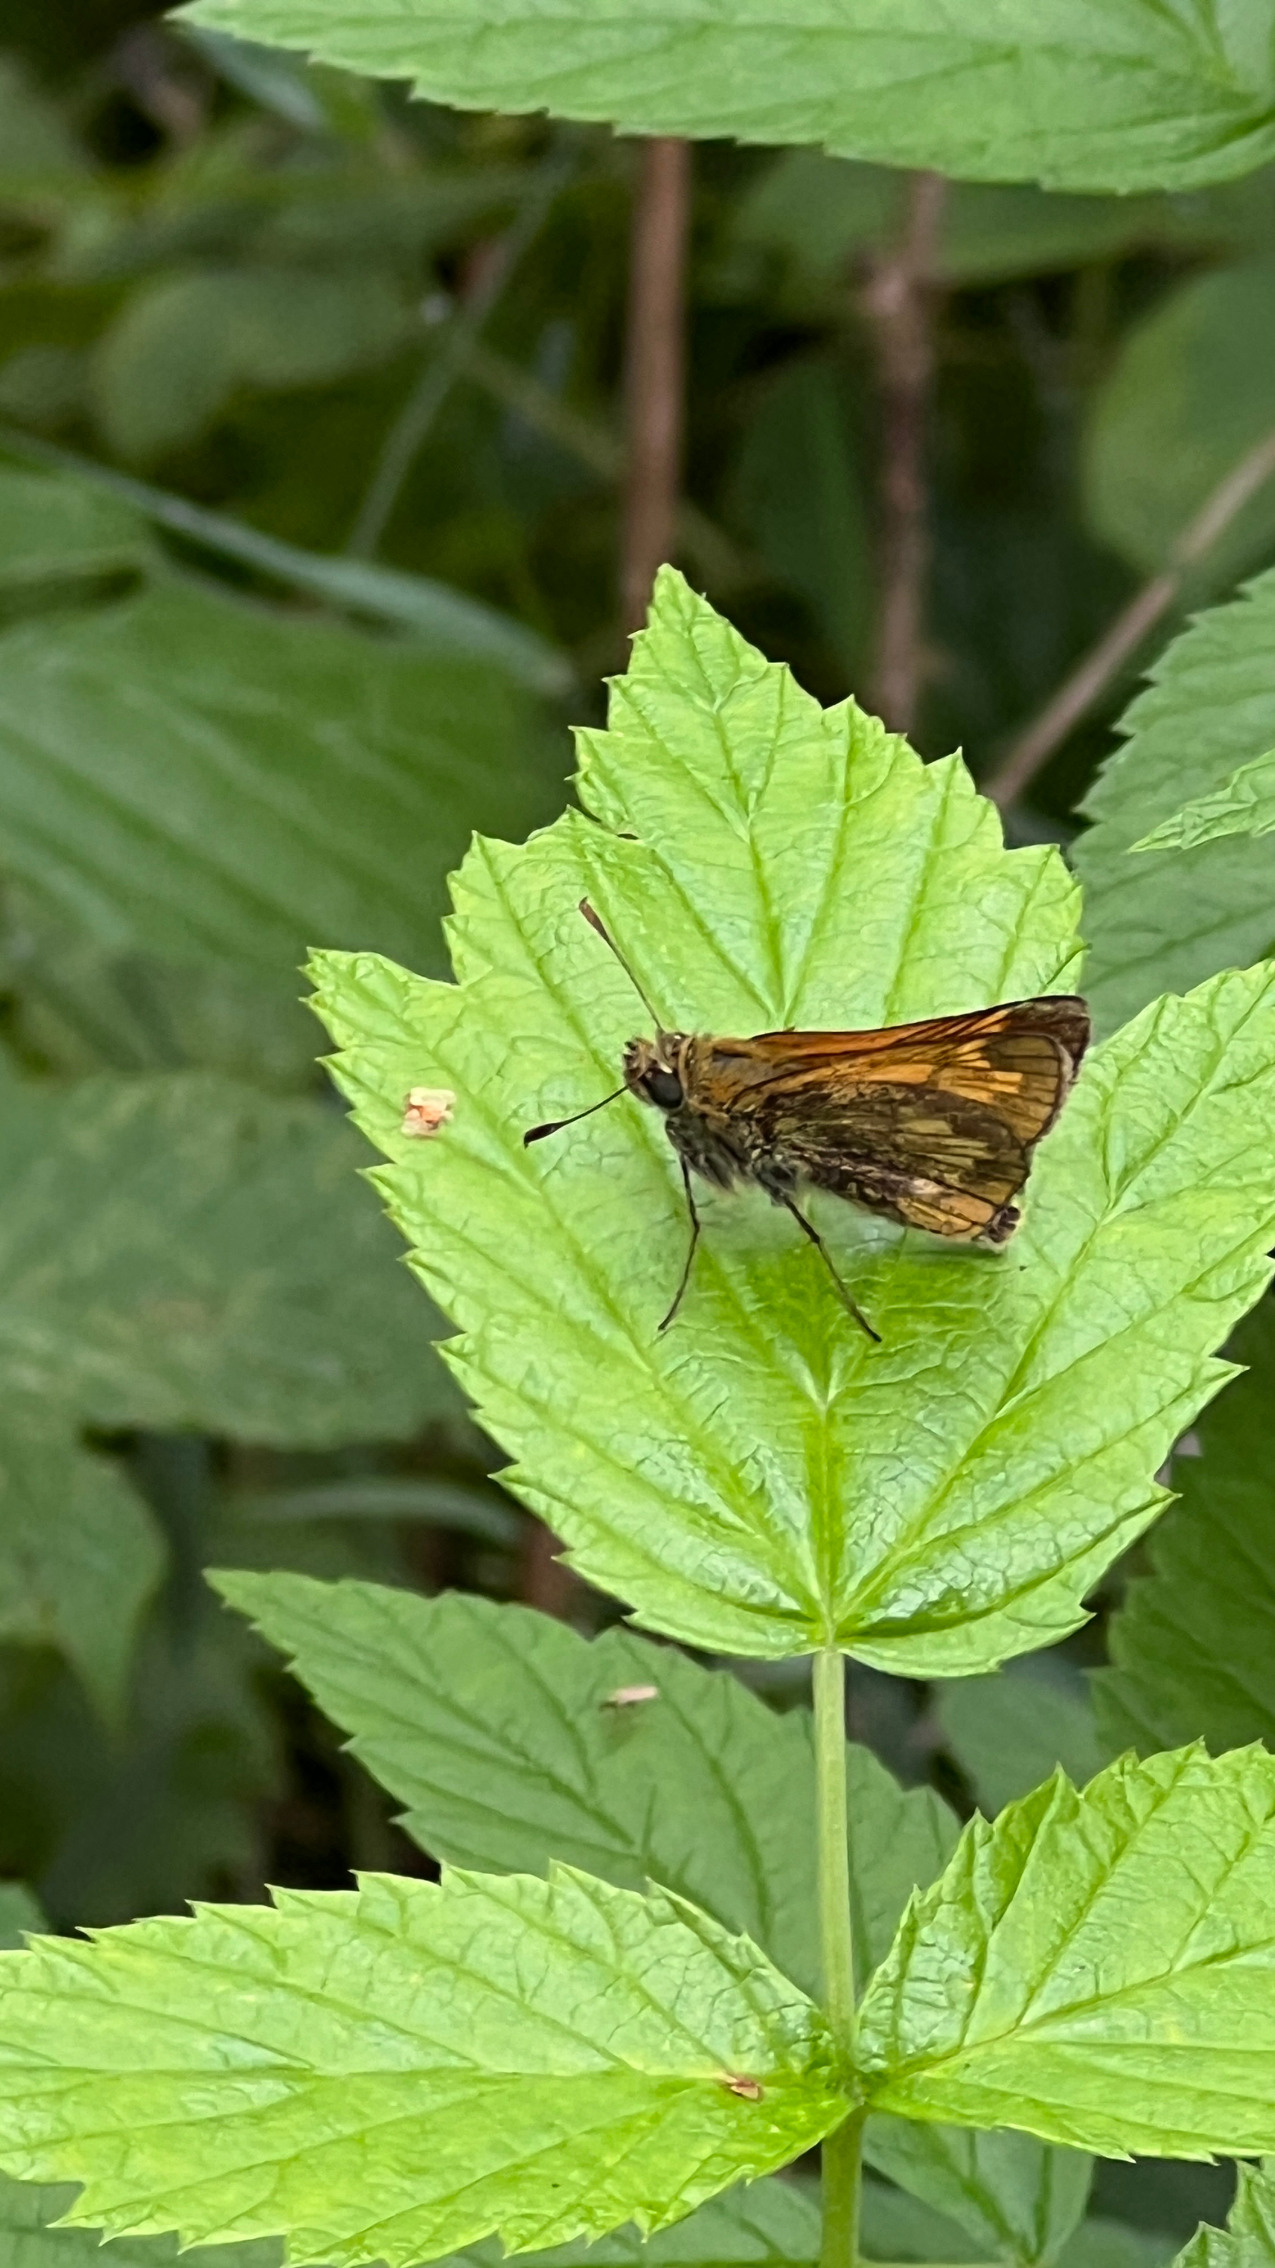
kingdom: Animalia
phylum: Arthropoda
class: Insecta
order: Lepidoptera
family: Hesperiidae
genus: Ochlodes
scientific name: Ochlodes venata
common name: Stor bredpande
